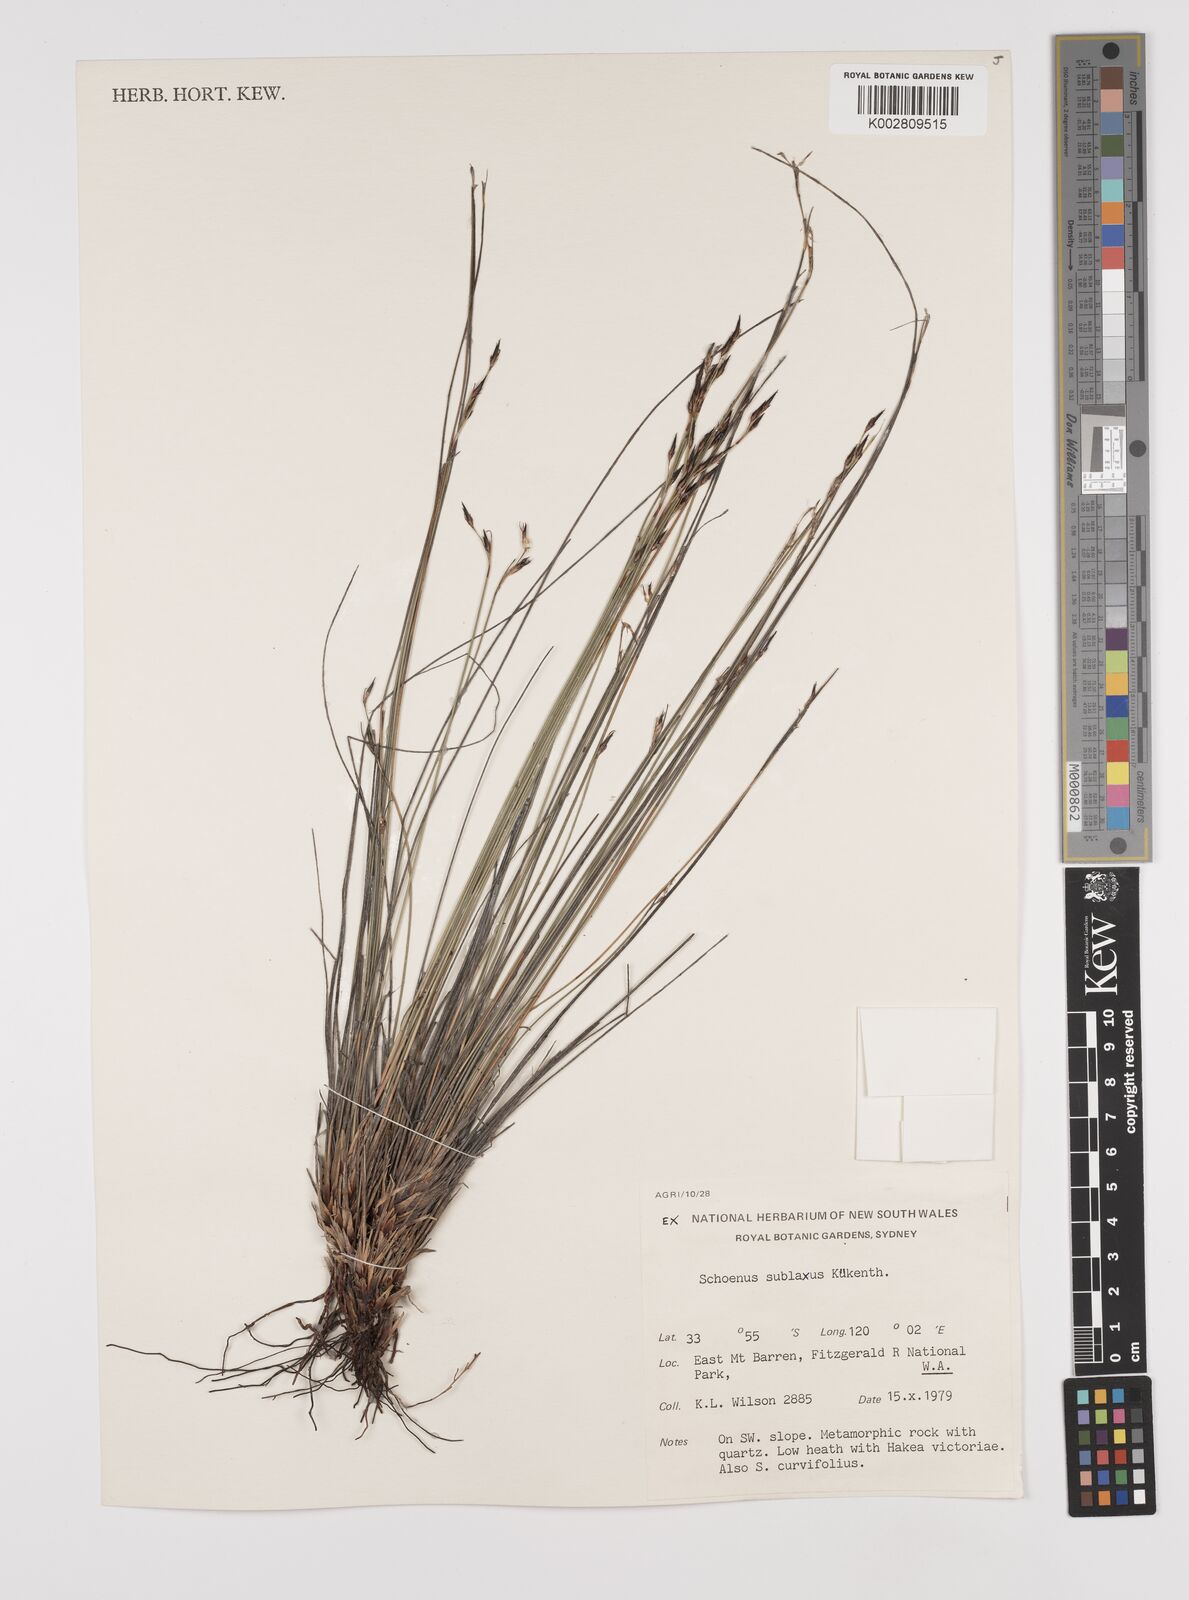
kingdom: Plantae
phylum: Tracheophyta
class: Liliopsida
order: Poales
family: Cyperaceae
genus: Schoenus
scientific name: Schoenus sublaxus
